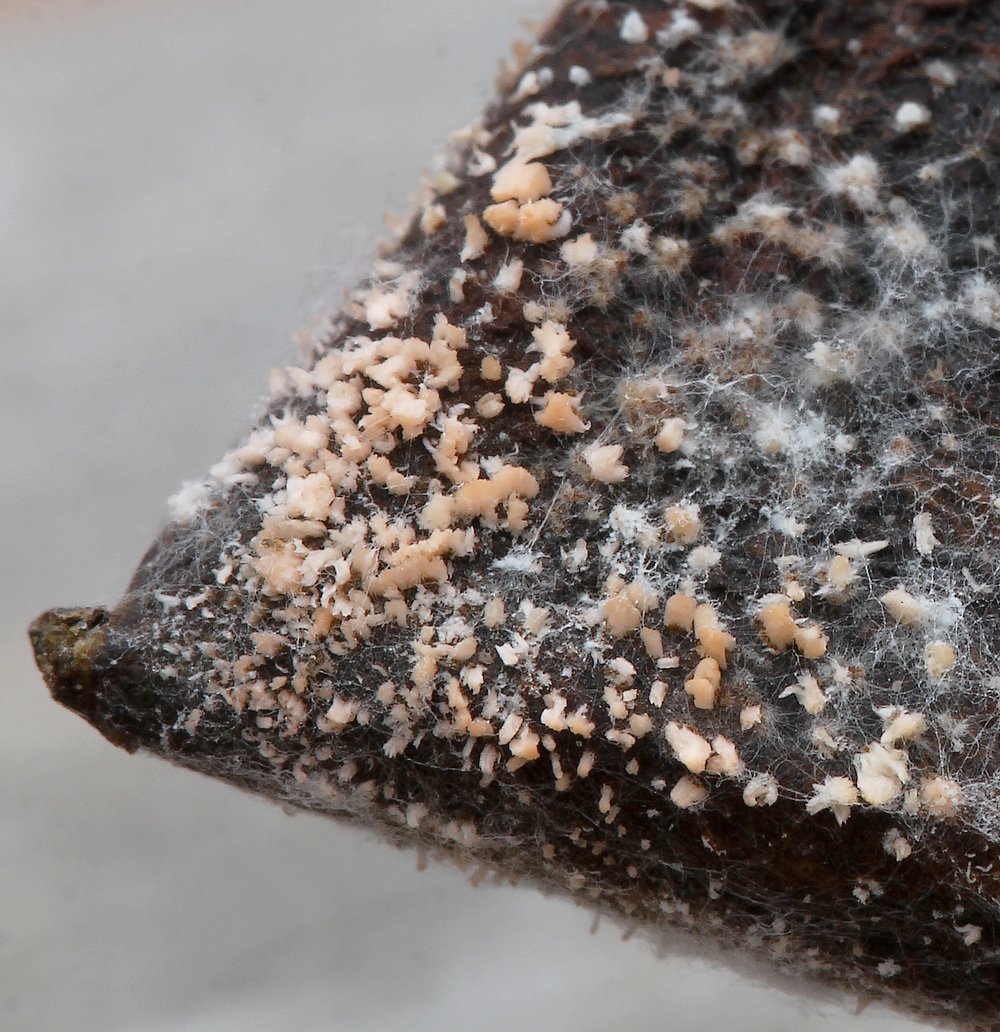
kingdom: Fungi
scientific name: Fungi
